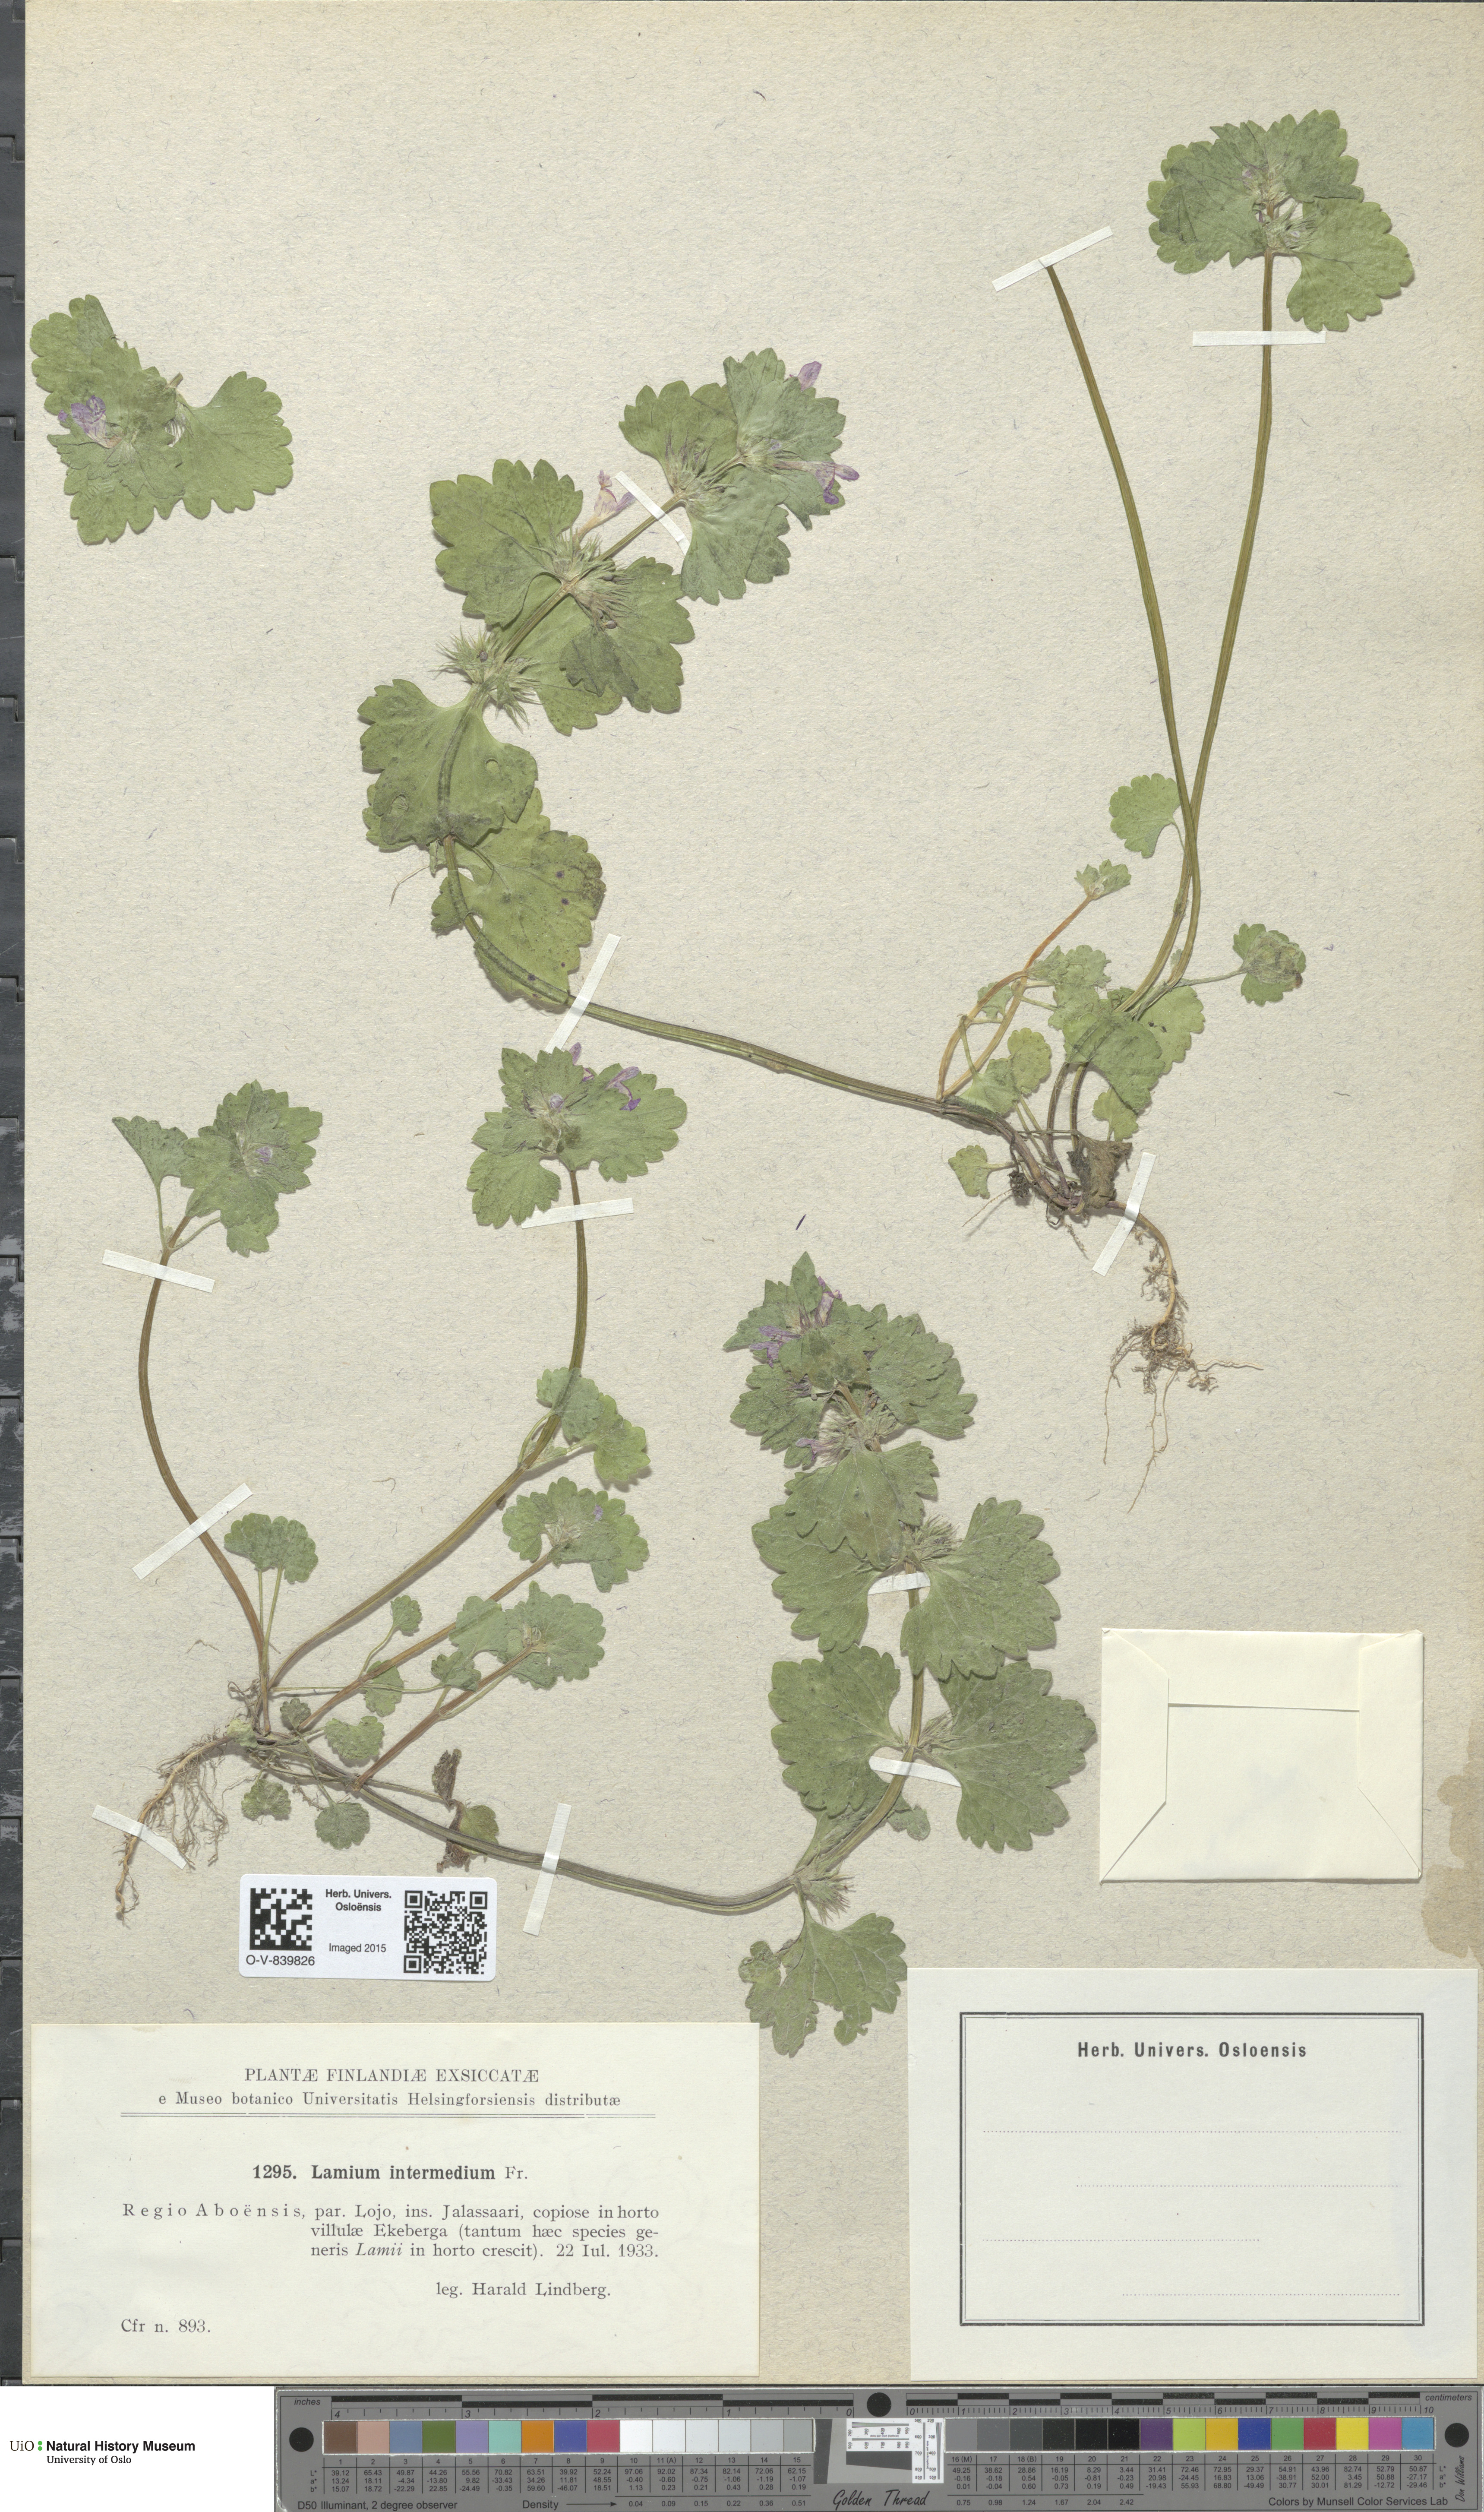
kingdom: Plantae
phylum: Tracheophyta
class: Magnoliopsida
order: Lamiales
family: Lamiaceae
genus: Lamium
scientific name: Lamium confertum
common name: Northern dead-nettle
